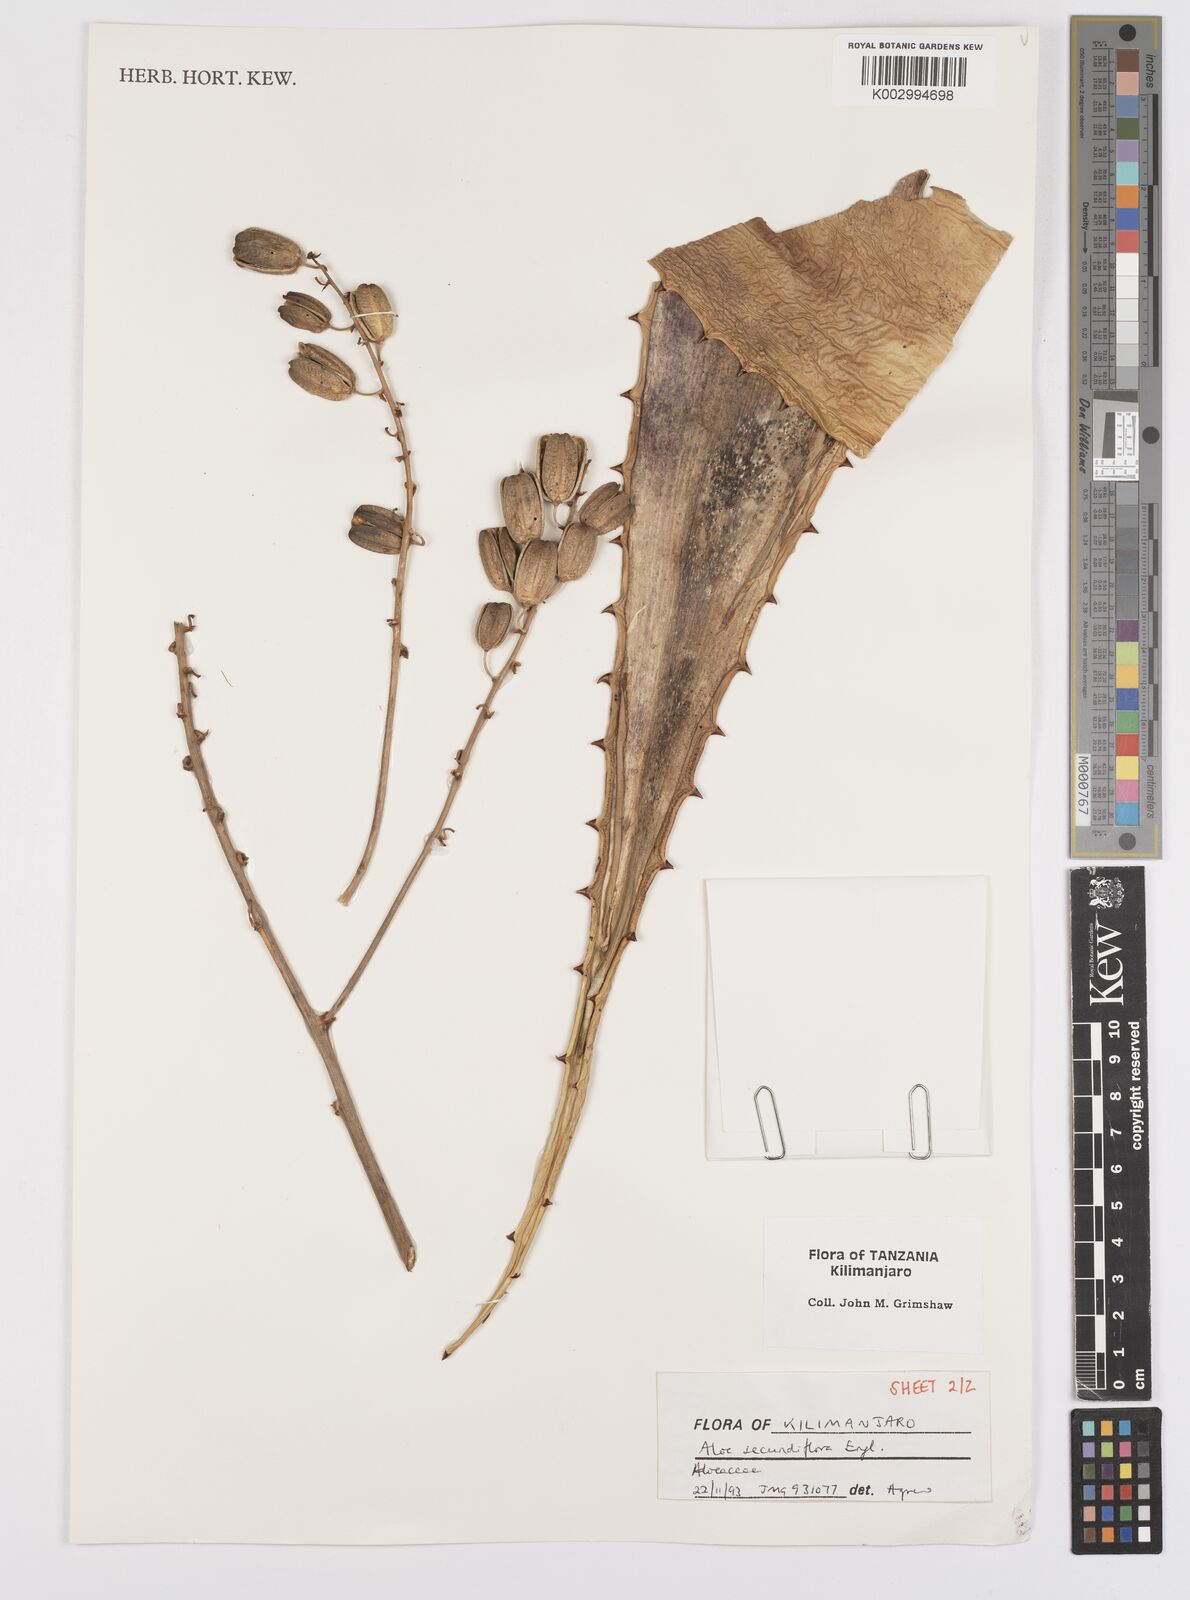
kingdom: Plantae
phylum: Tracheophyta
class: Liliopsida
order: Asparagales
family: Asphodelaceae
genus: Aloe
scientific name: Aloe secundiflora
